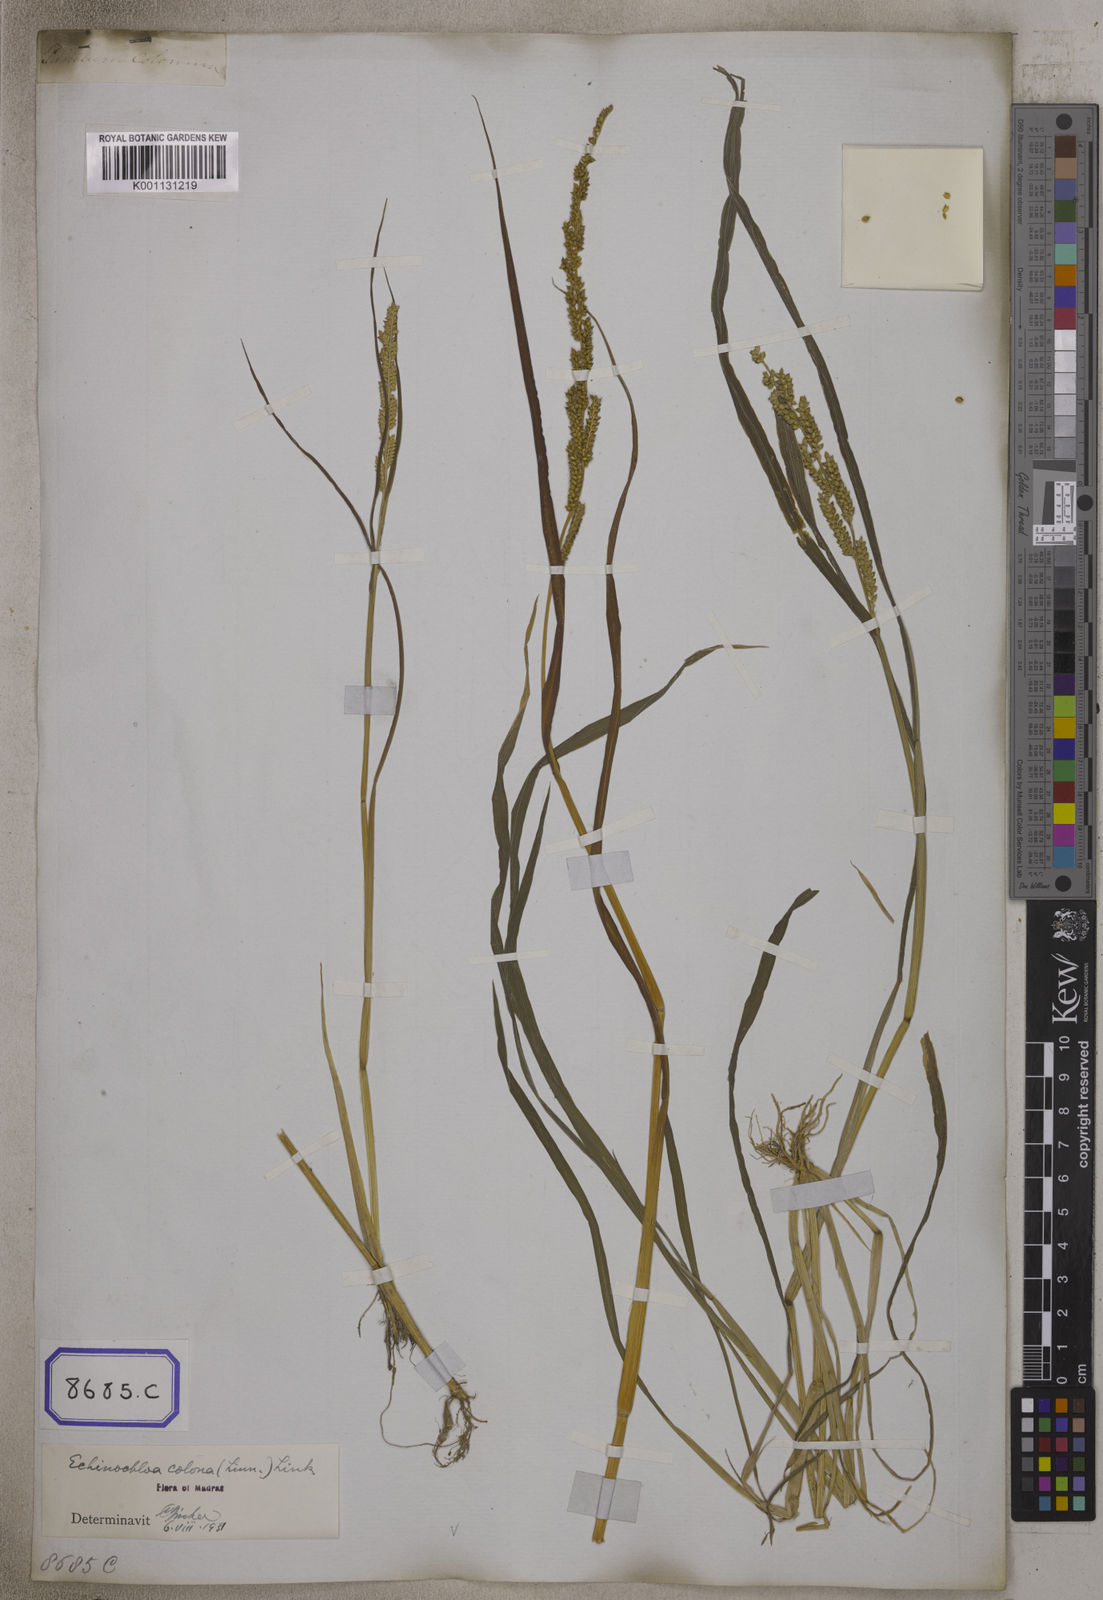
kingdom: Plantae
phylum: Tracheophyta
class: Liliopsida
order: Poales
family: Poaceae
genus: Echinochloa
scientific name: Echinochloa colonum
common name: Jungle rice
